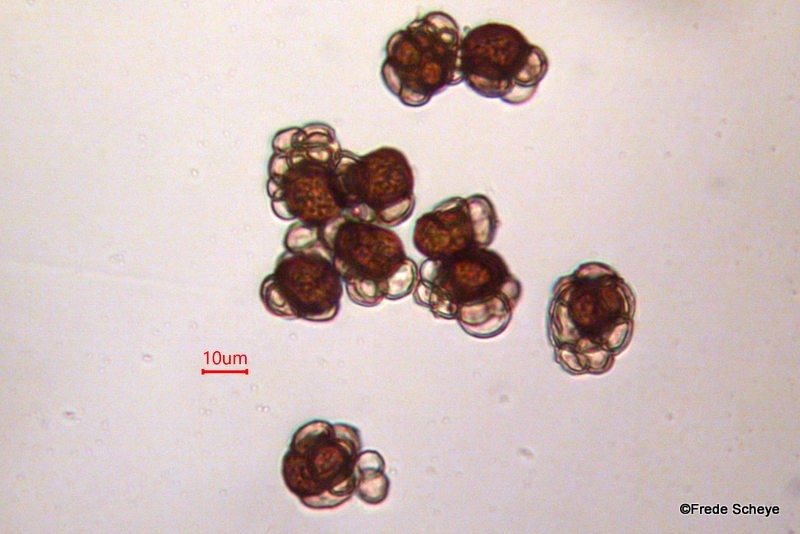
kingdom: Fungi
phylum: Basidiomycota
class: Ustilaginomycetes
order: Urocystidales
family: Urocystidaceae
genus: Urocystis
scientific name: Urocystis anemones
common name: anemone-brand
